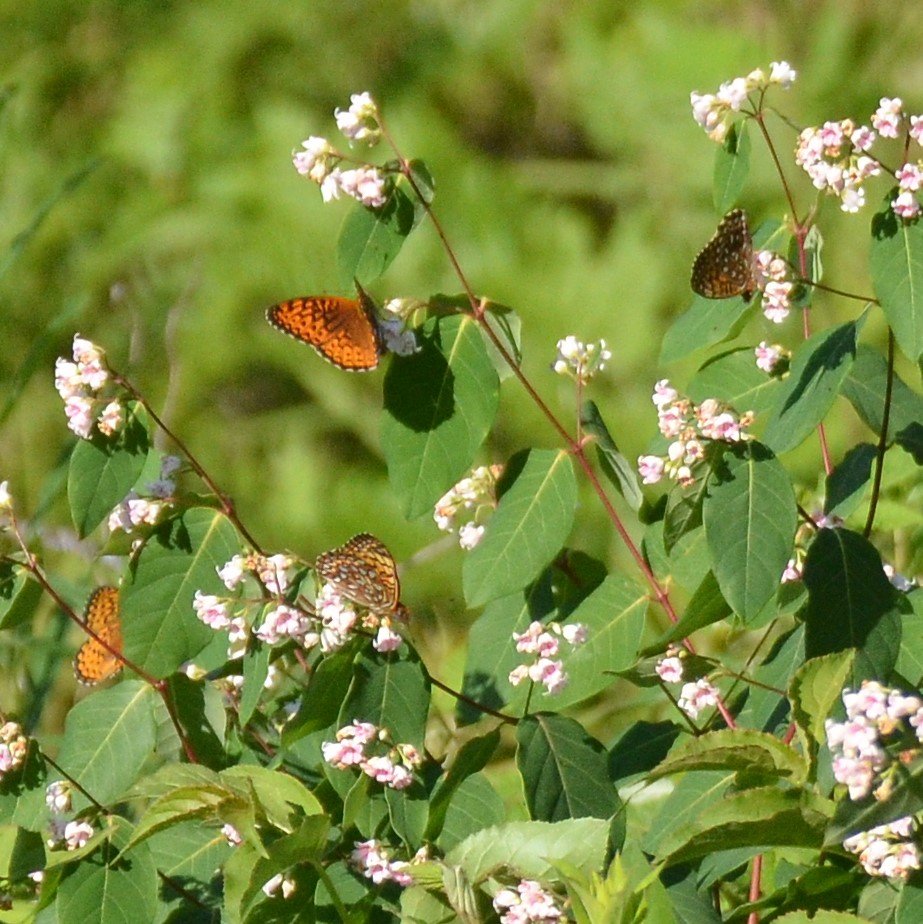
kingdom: Animalia
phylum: Arthropoda
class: Insecta
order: Lepidoptera
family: Nymphalidae
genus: Speyeria
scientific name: Speyeria atlantis
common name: Atlantis Fritillary
